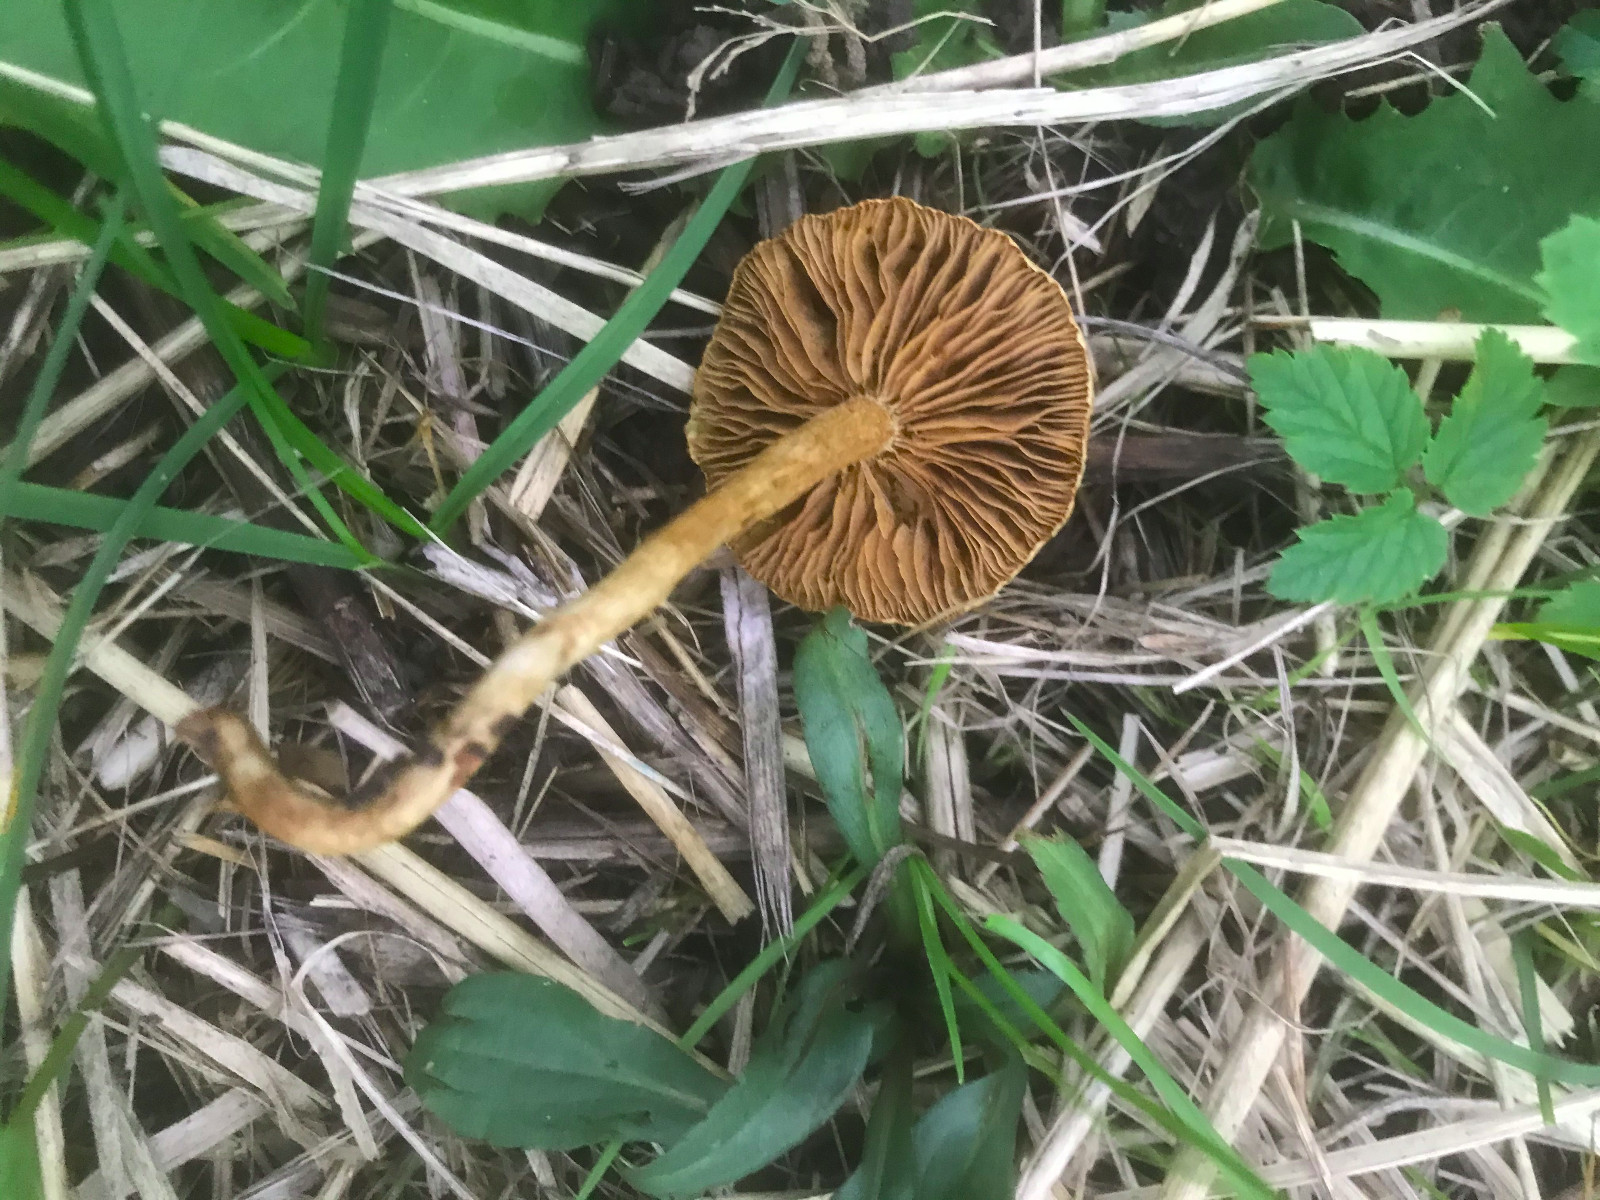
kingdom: Fungi
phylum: Basidiomycota
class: Agaricomycetes
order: Agaricales
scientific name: Agaricales
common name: champignonordenen
